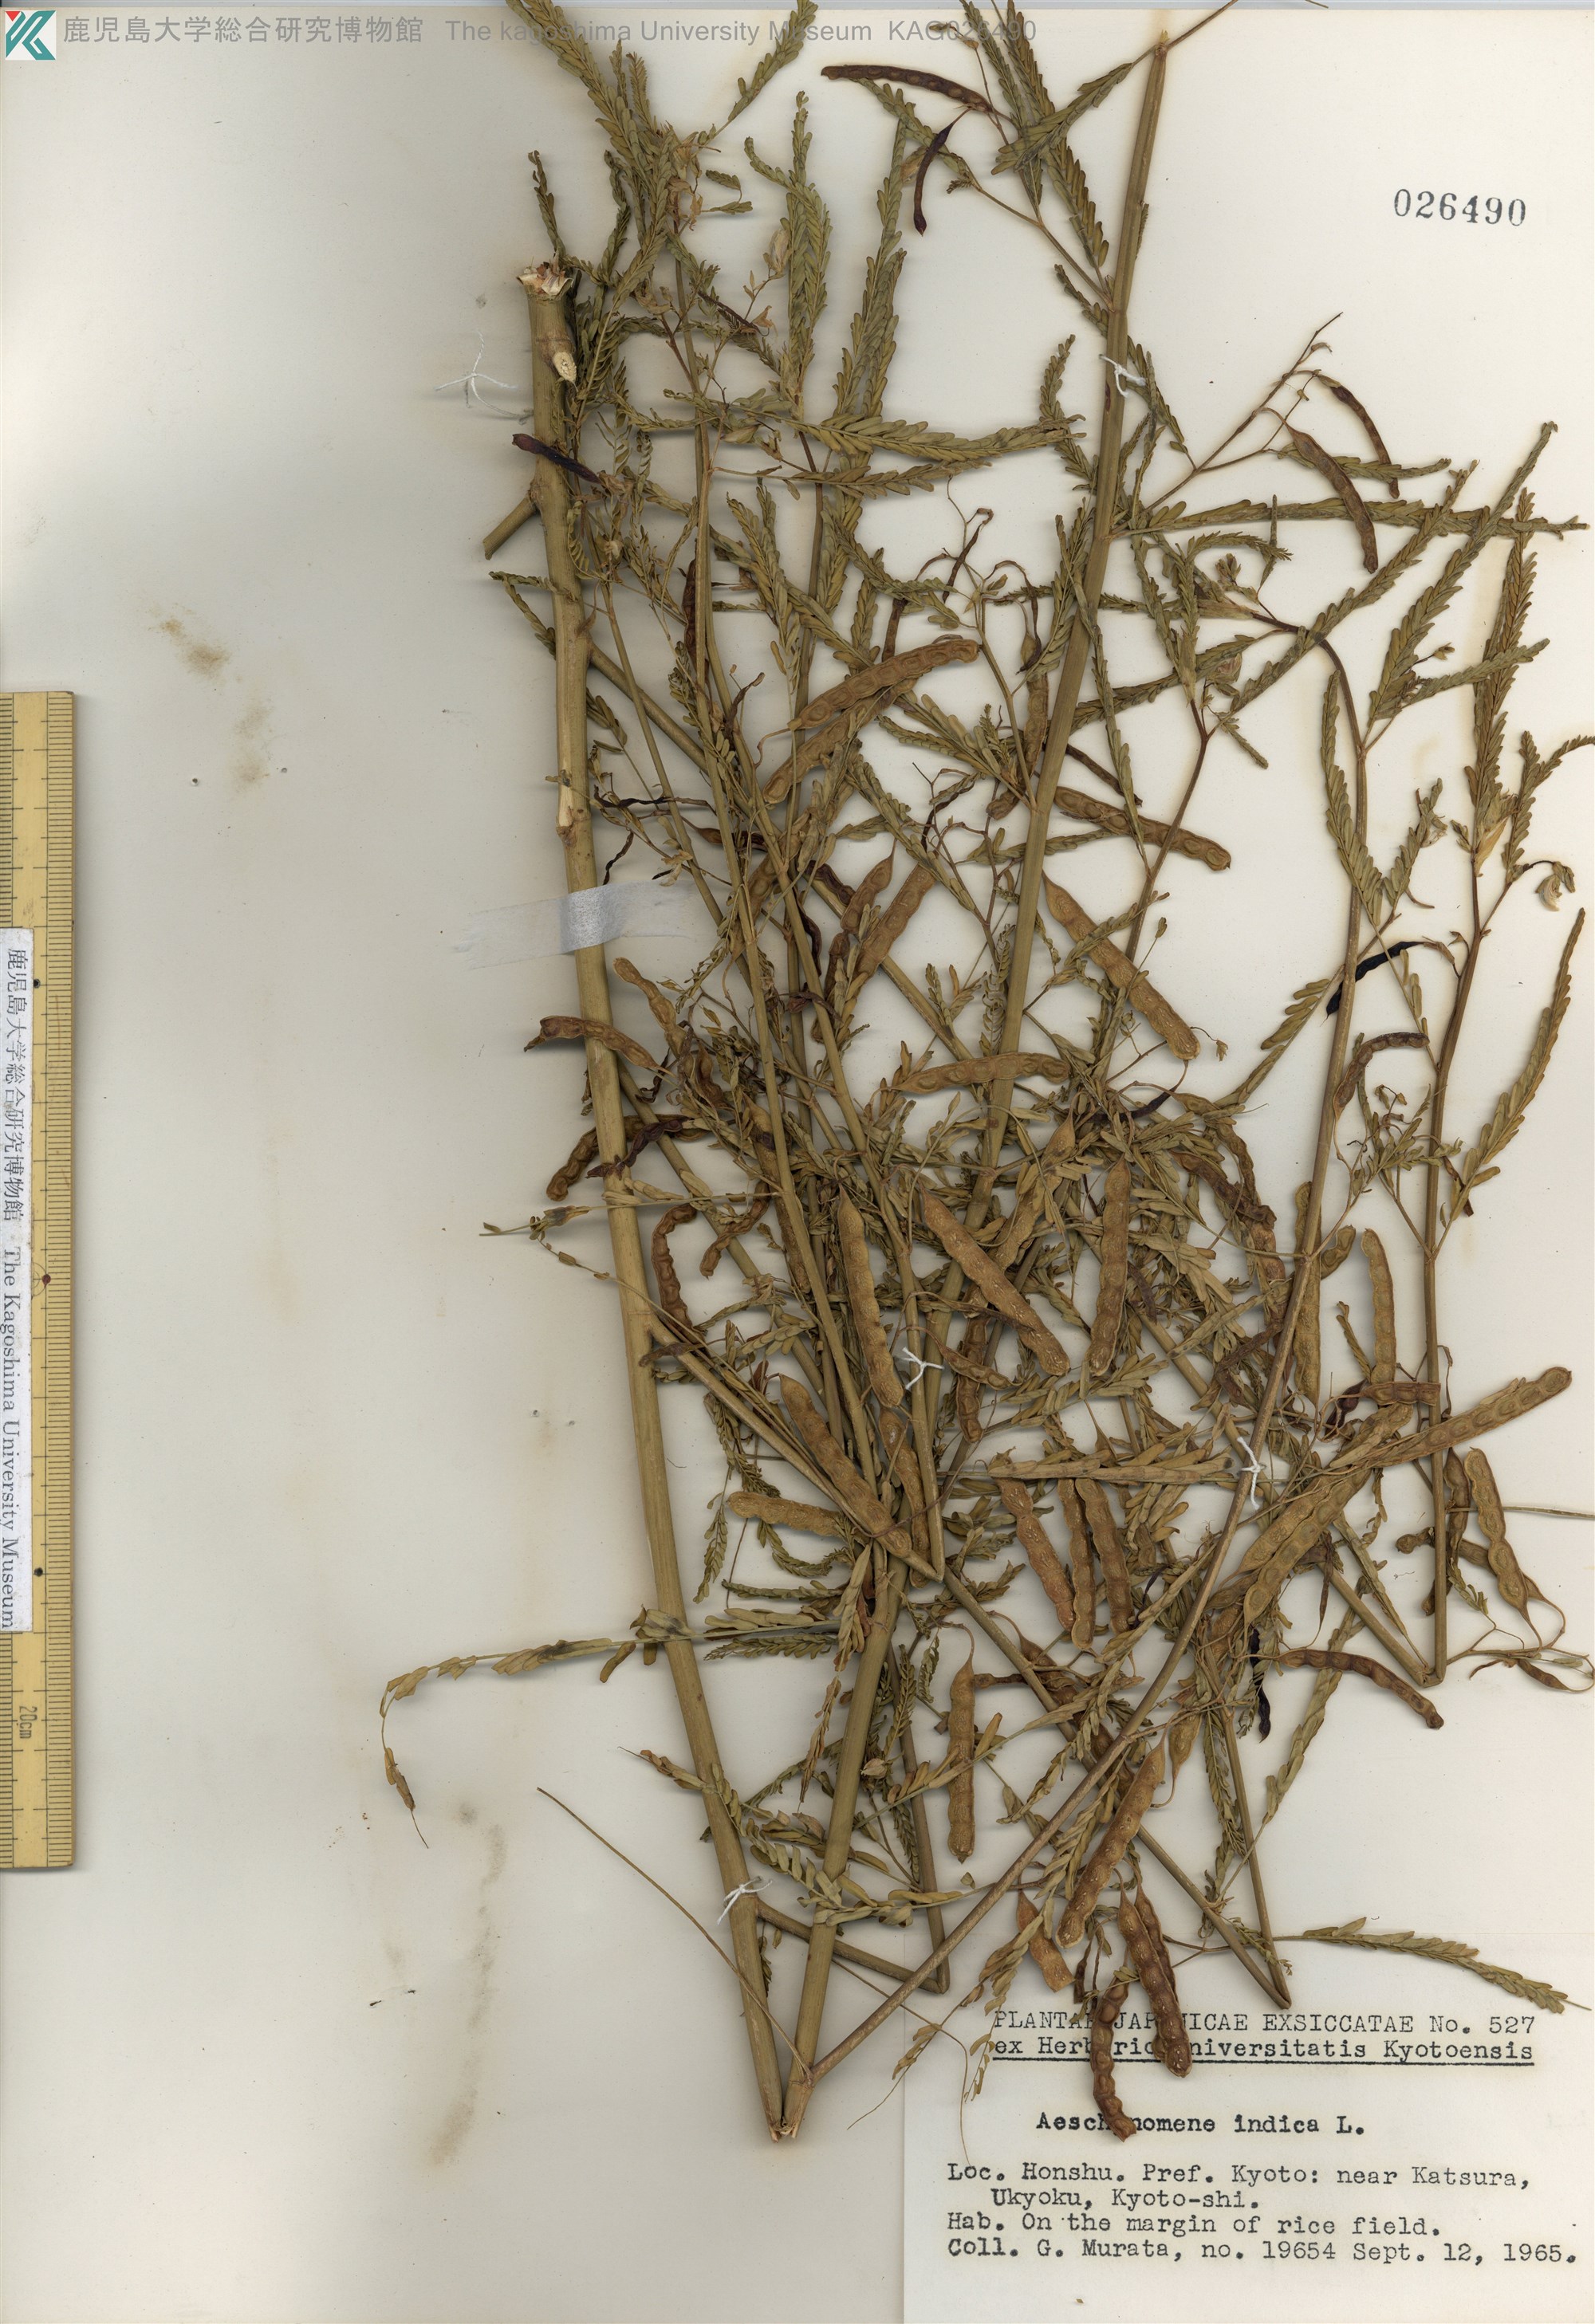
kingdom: Plantae
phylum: Tracheophyta
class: Magnoliopsida
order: Fabales
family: Fabaceae
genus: Aeschynomene
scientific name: Aeschynomene indica
